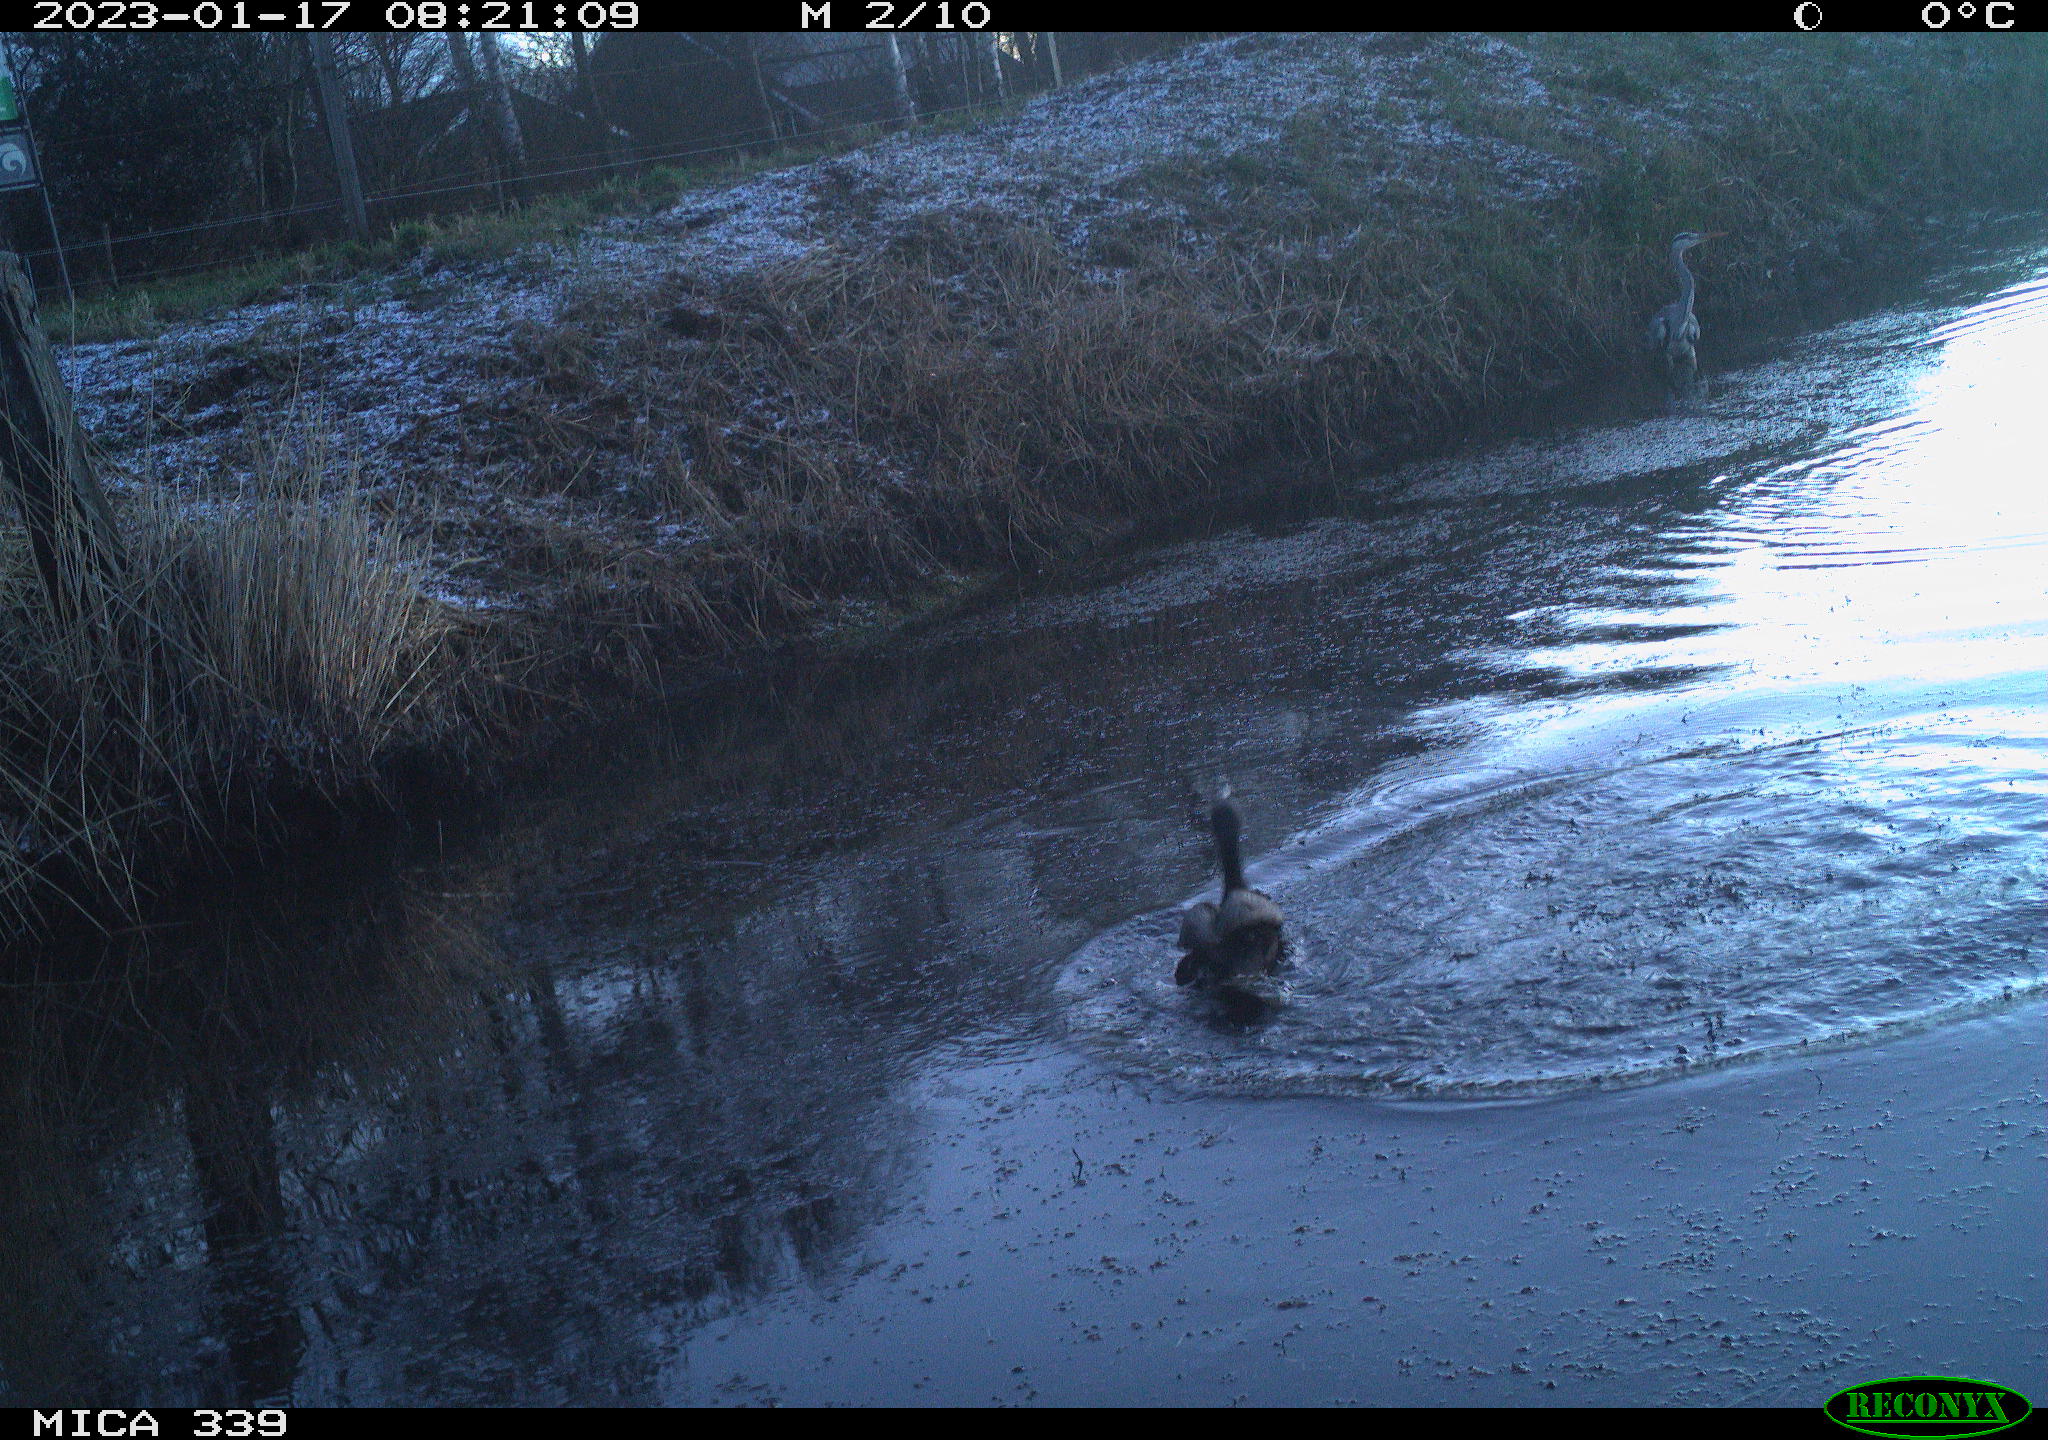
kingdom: Animalia
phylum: Chordata
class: Aves
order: Suliformes
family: Phalacrocoracidae
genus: Phalacrocorax
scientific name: Phalacrocorax carbo
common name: Great cormorant
